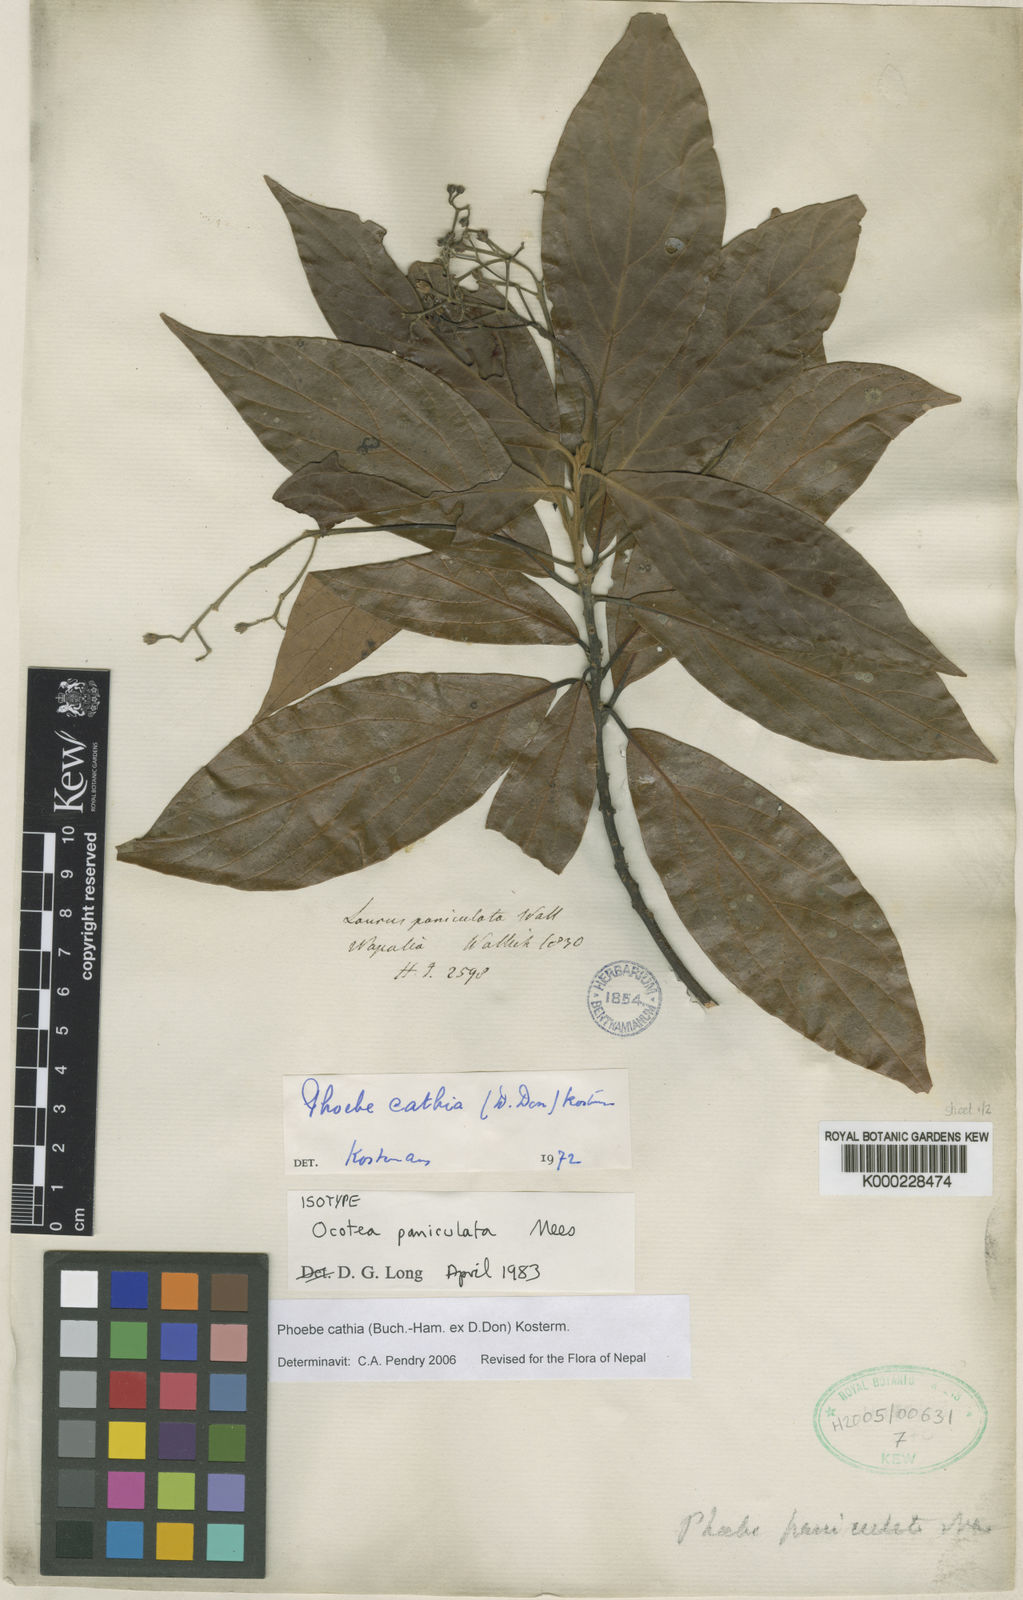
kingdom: Plantae
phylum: Tracheophyta
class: Magnoliopsida
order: Laurales
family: Lauraceae
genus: Phoebe
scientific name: Phoebe cathia
